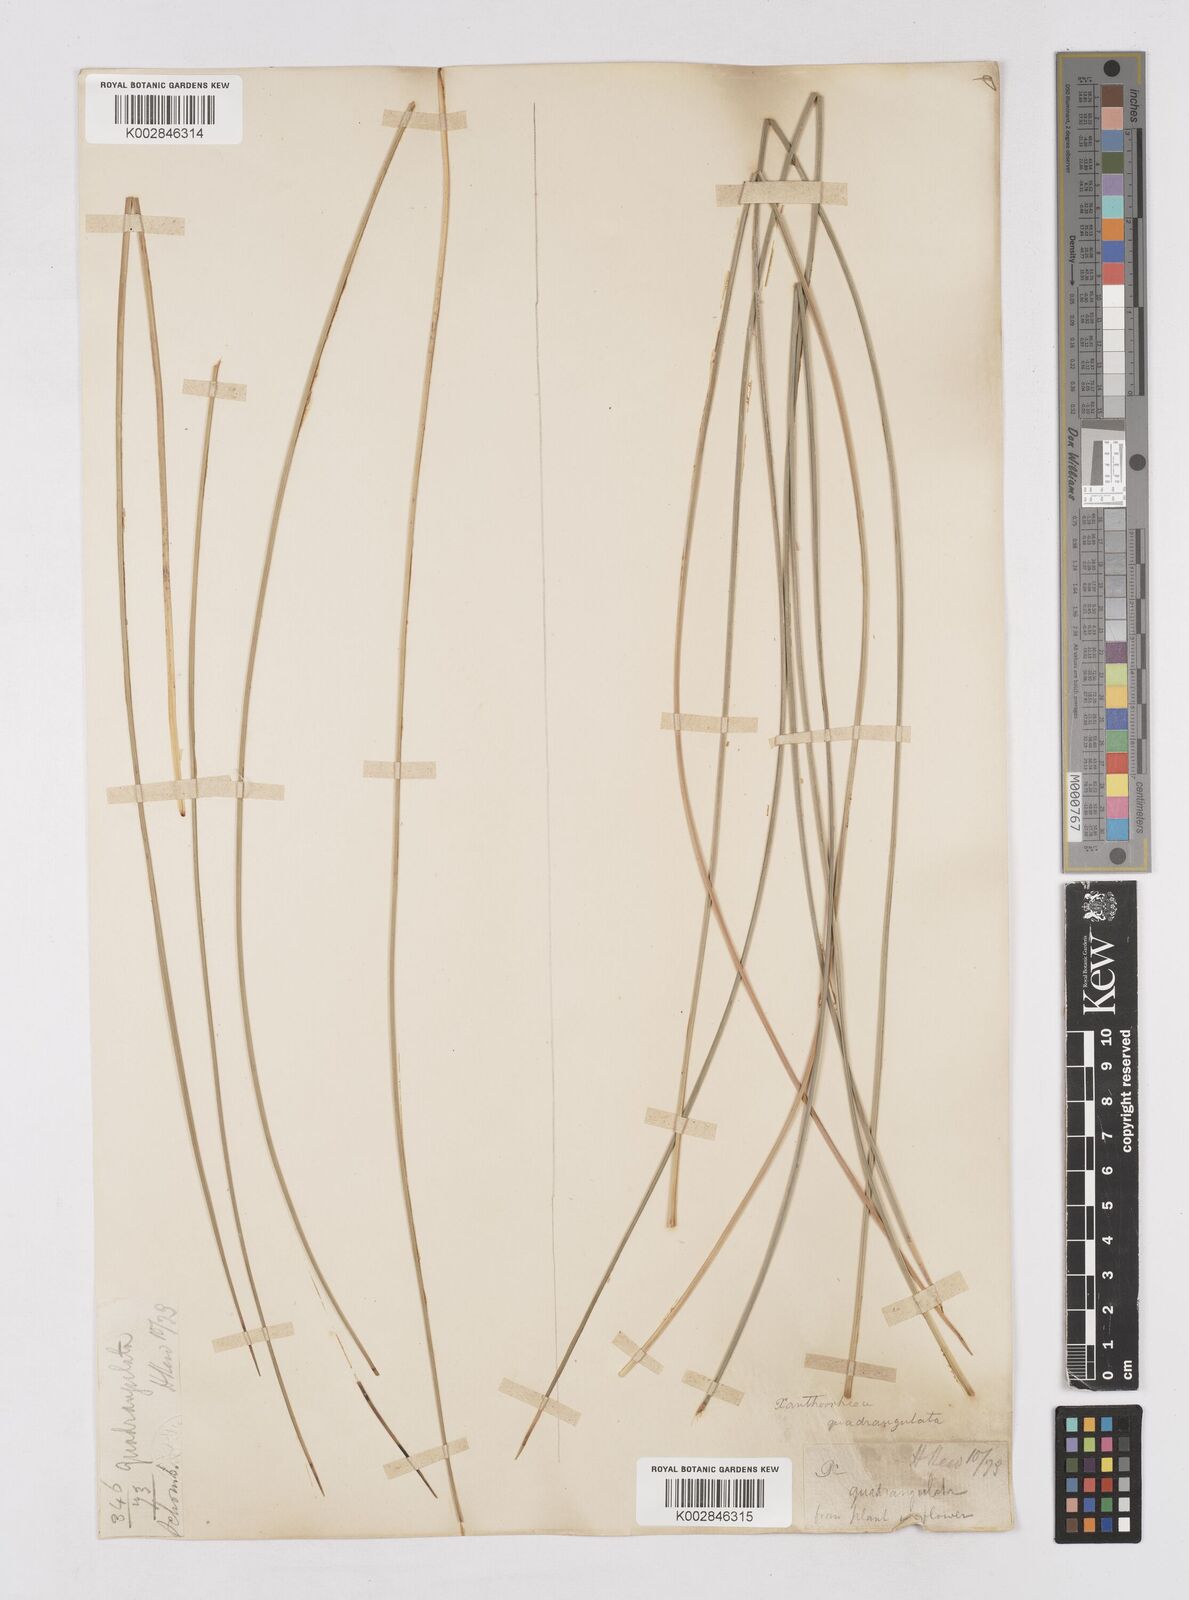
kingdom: Plantae
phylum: Tracheophyta
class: Liliopsida
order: Asparagales
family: Asphodelaceae
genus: Xanthorrhoea
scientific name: Xanthorrhoea quadrangulata
